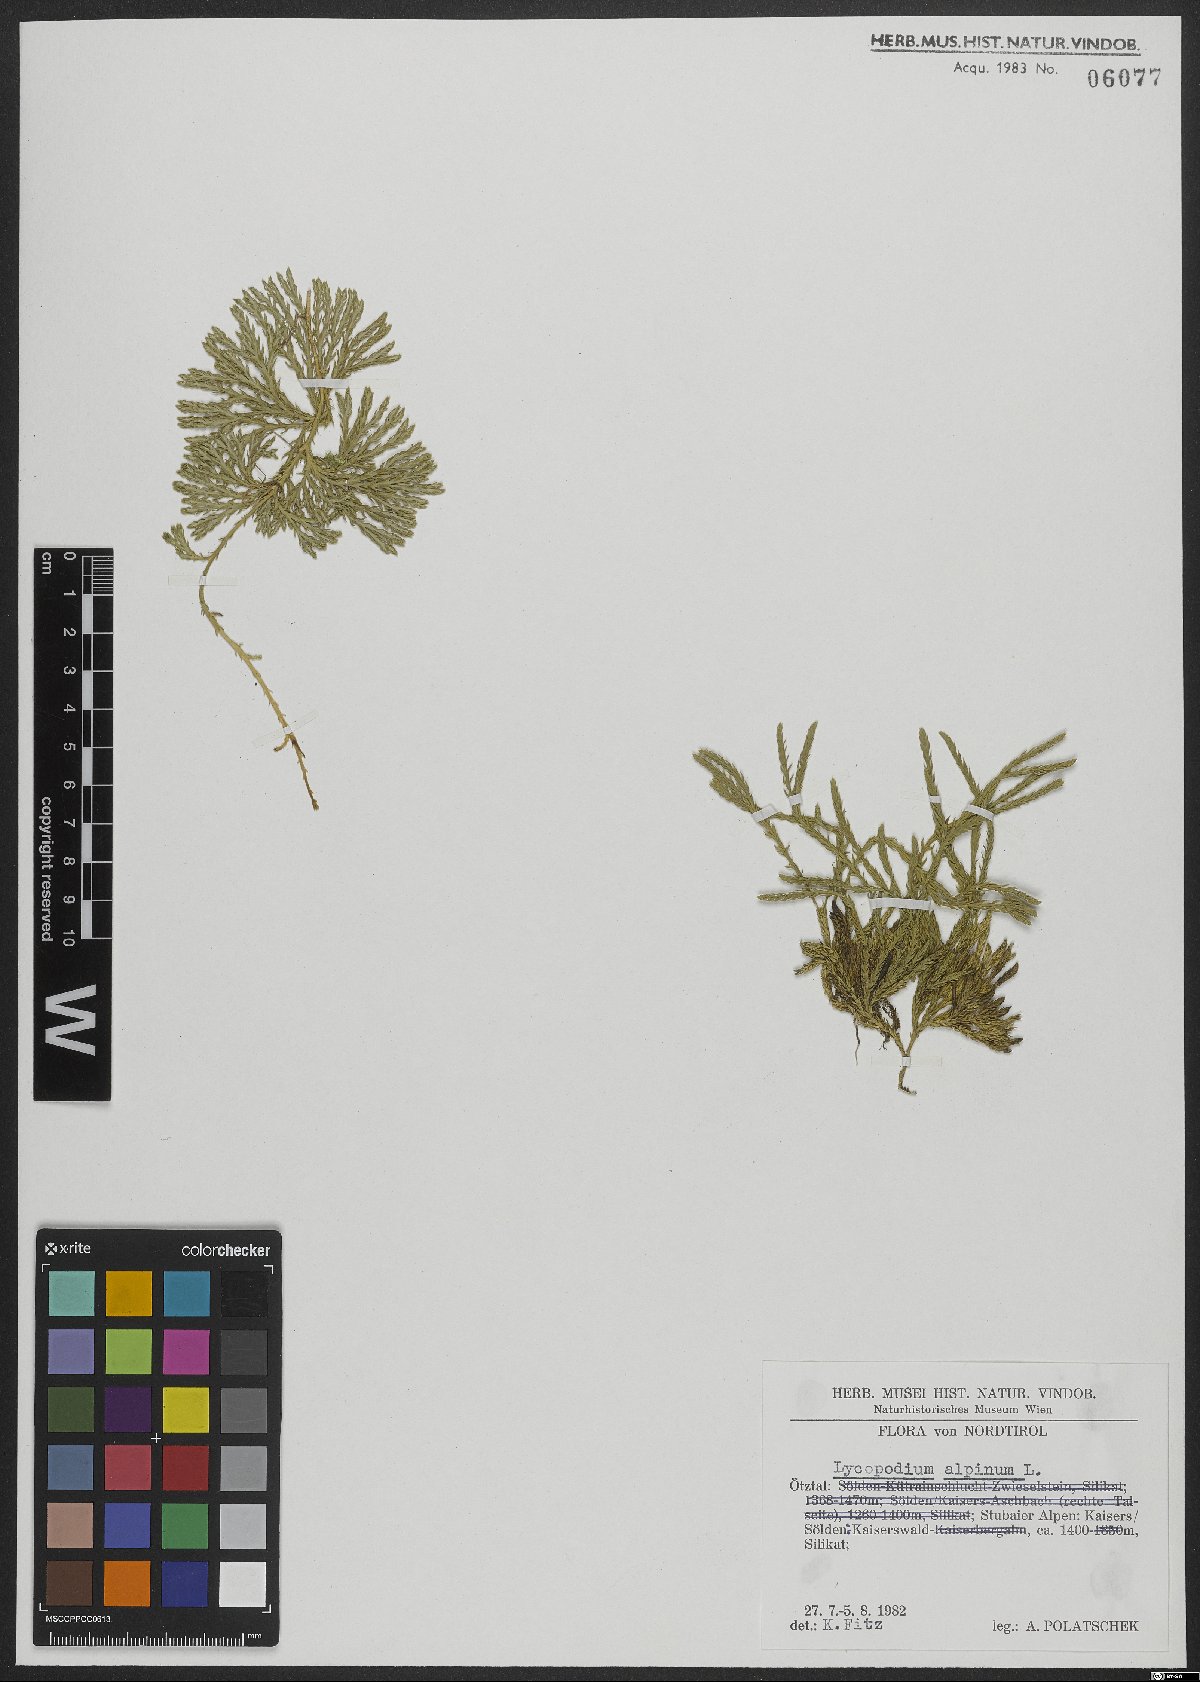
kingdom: Plantae
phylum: Tracheophyta
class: Lycopodiopsida
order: Lycopodiales
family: Lycopodiaceae
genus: Diphasiastrum
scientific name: Diphasiastrum alpinum
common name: Alpine clubmoss
